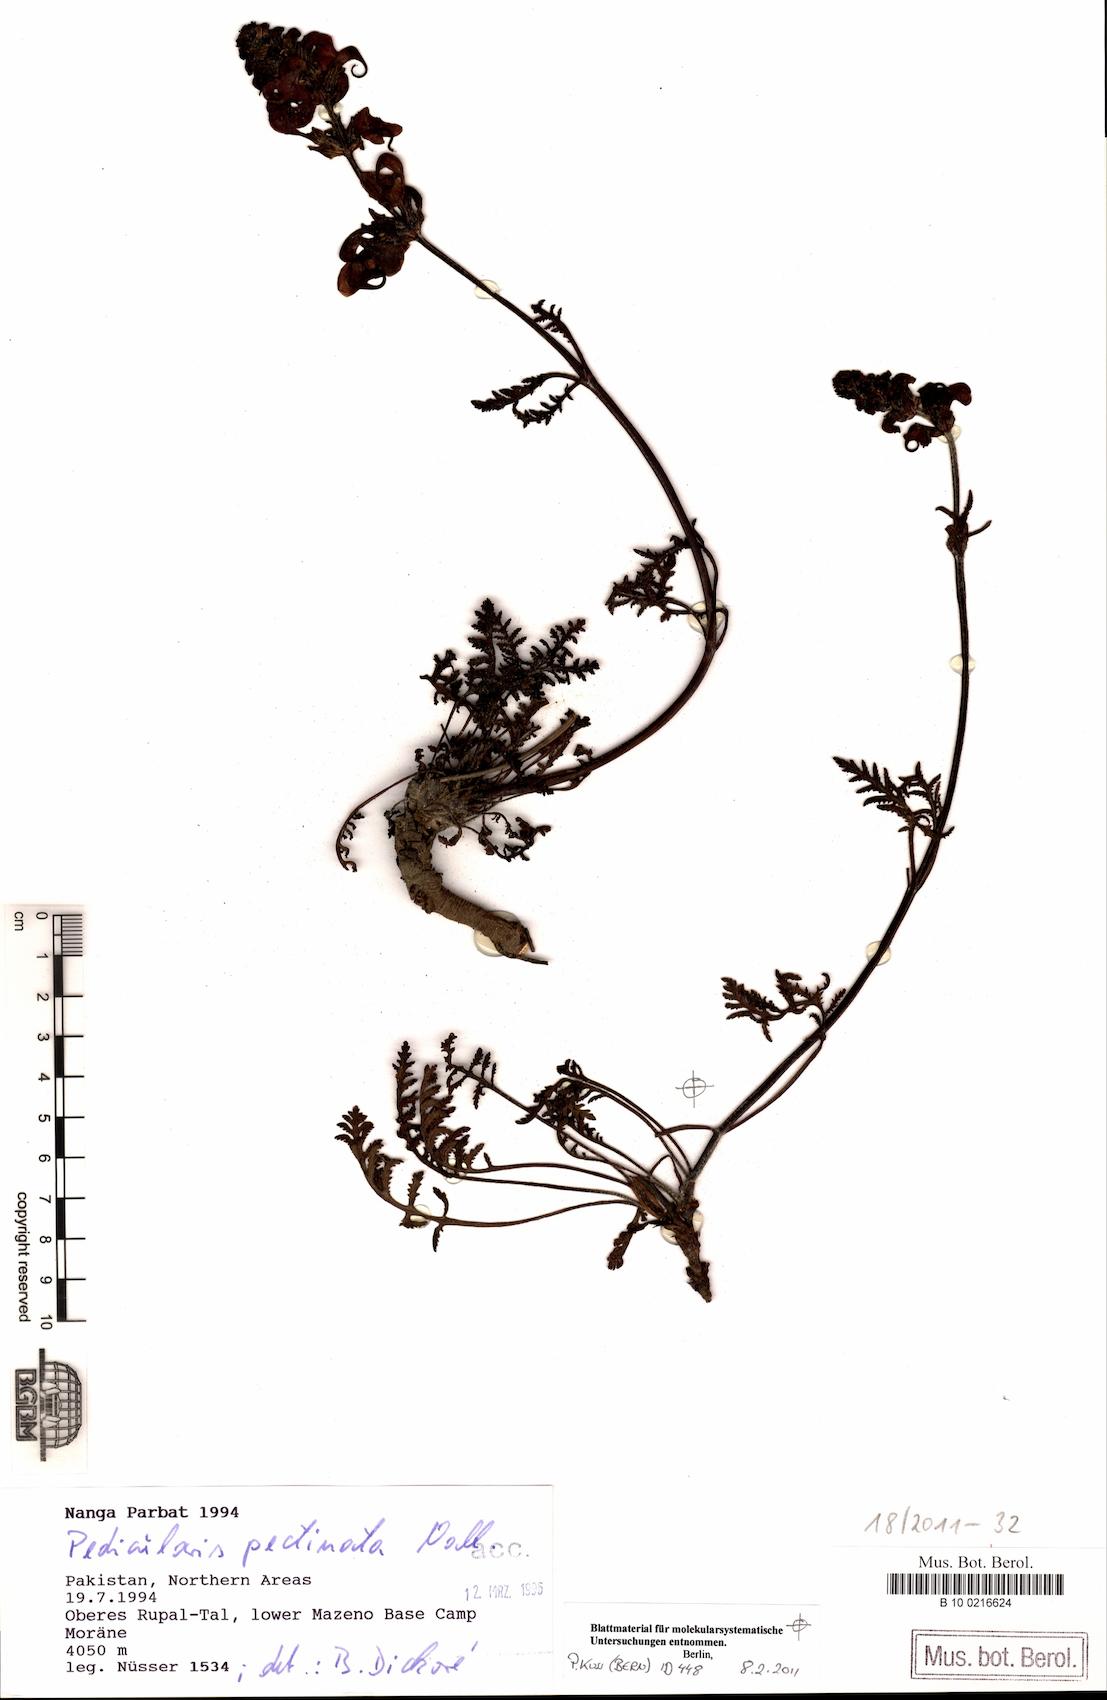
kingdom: Plantae
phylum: Tracheophyta
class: Magnoliopsida
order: Lamiales
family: Orobanchaceae
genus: Pedicularis
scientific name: Pedicularis pectinata
